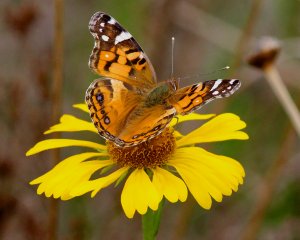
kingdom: Animalia
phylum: Arthropoda
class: Insecta
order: Lepidoptera
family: Nymphalidae
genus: Vanessa
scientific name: Vanessa virginiensis
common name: American Lady
